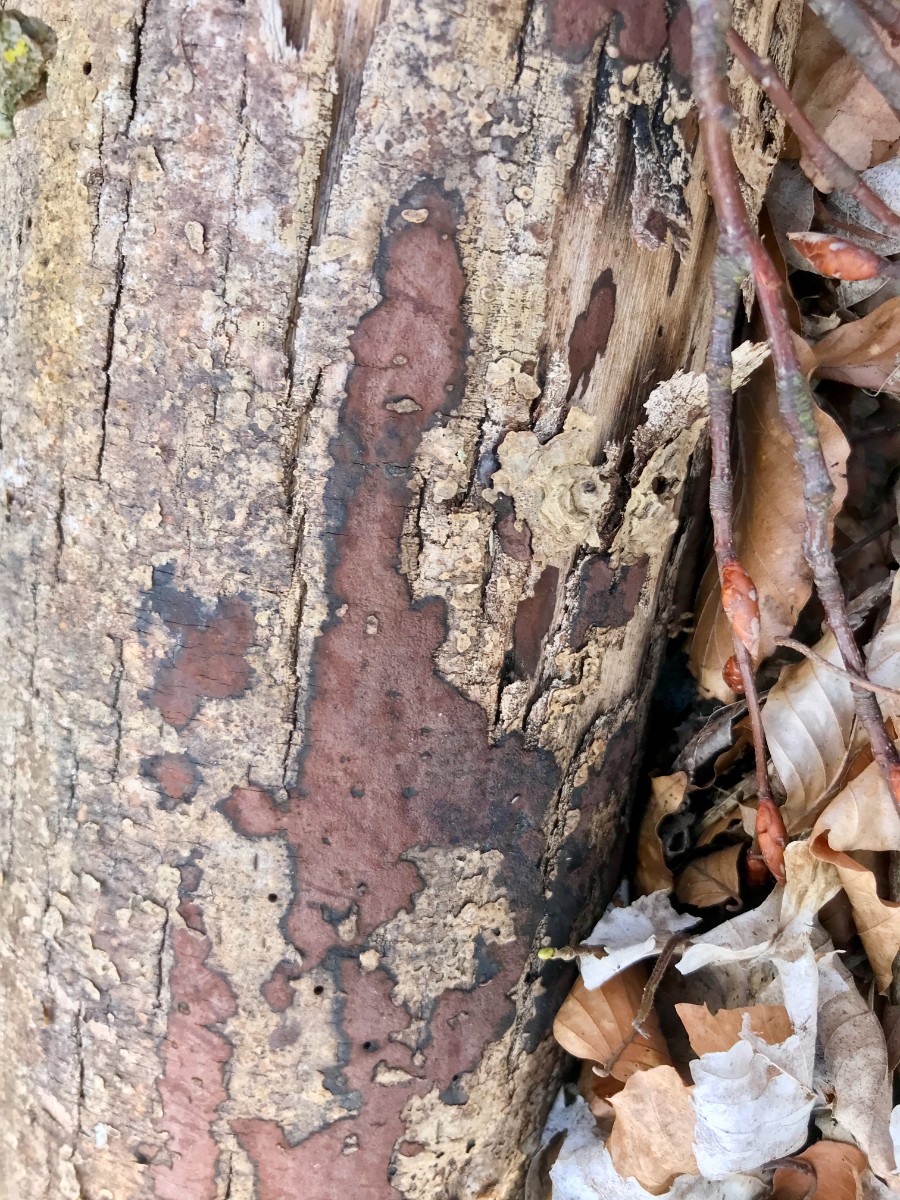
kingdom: Fungi
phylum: Ascomycota
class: Sordariomycetes
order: Xylariales
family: Hypoxylaceae
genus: Hypoxylon
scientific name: Hypoxylon petriniae
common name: nedsænket kulbær
